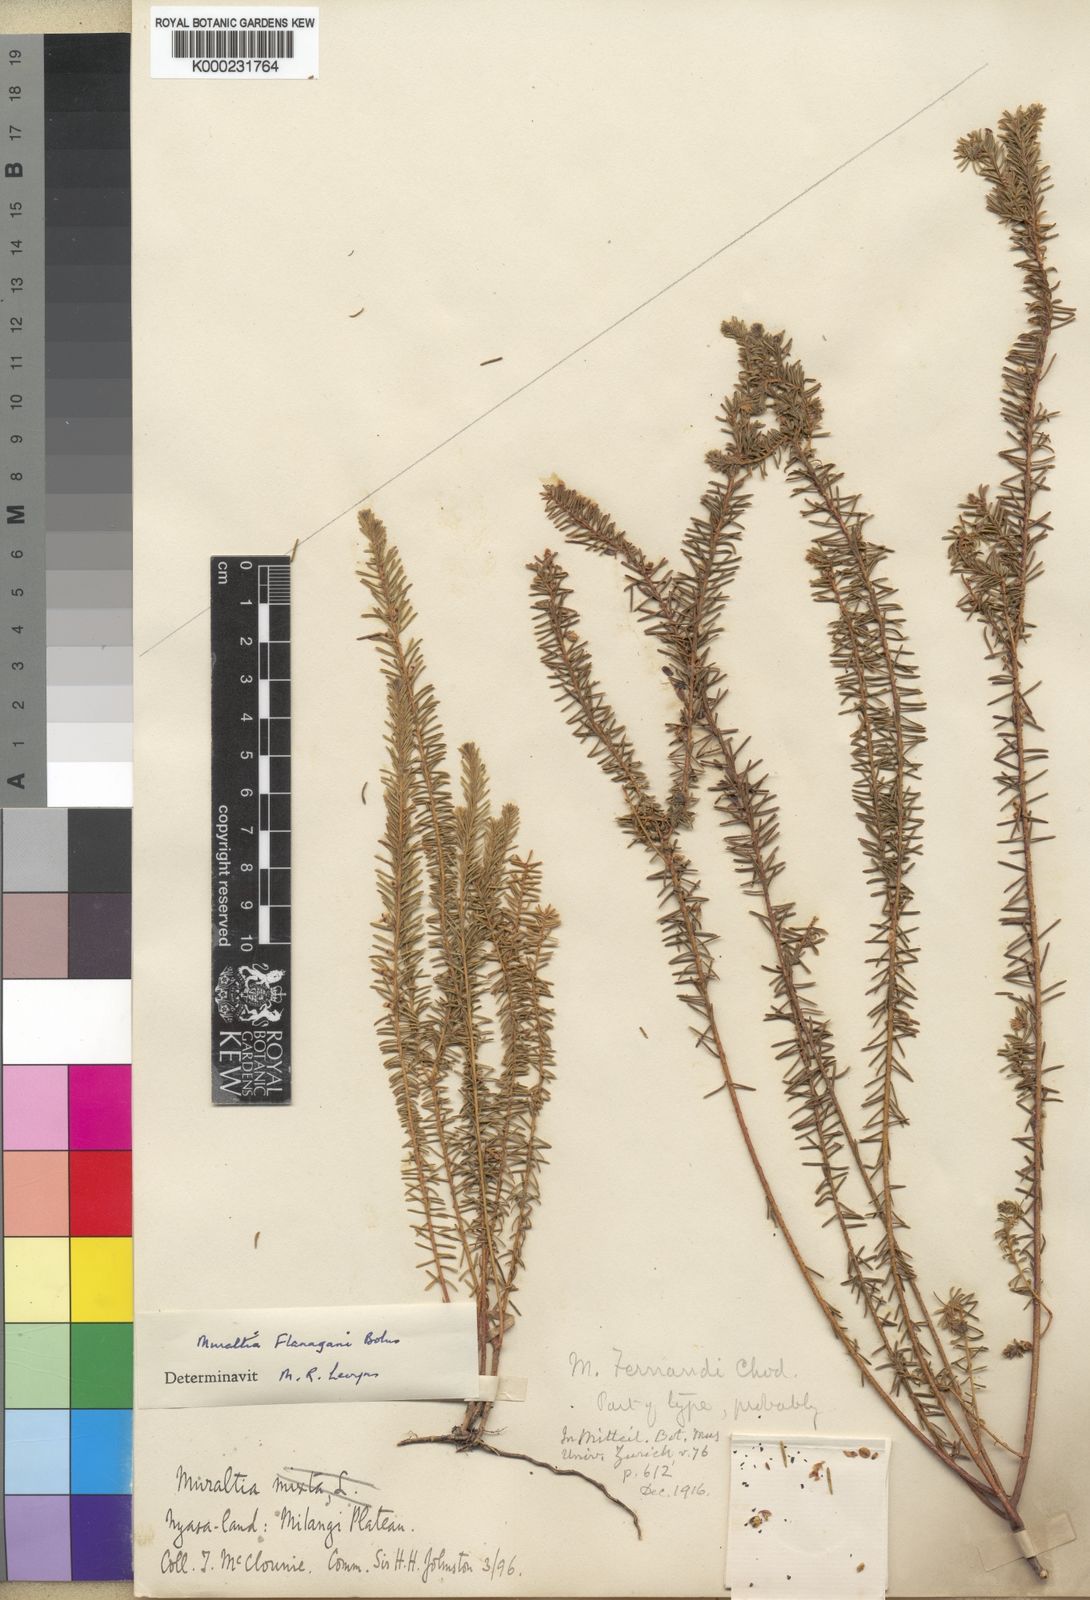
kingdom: Plantae
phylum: Tracheophyta
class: Magnoliopsida
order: Fabales
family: Polygalaceae
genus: Muraltia
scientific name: Muraltia flanaganii
